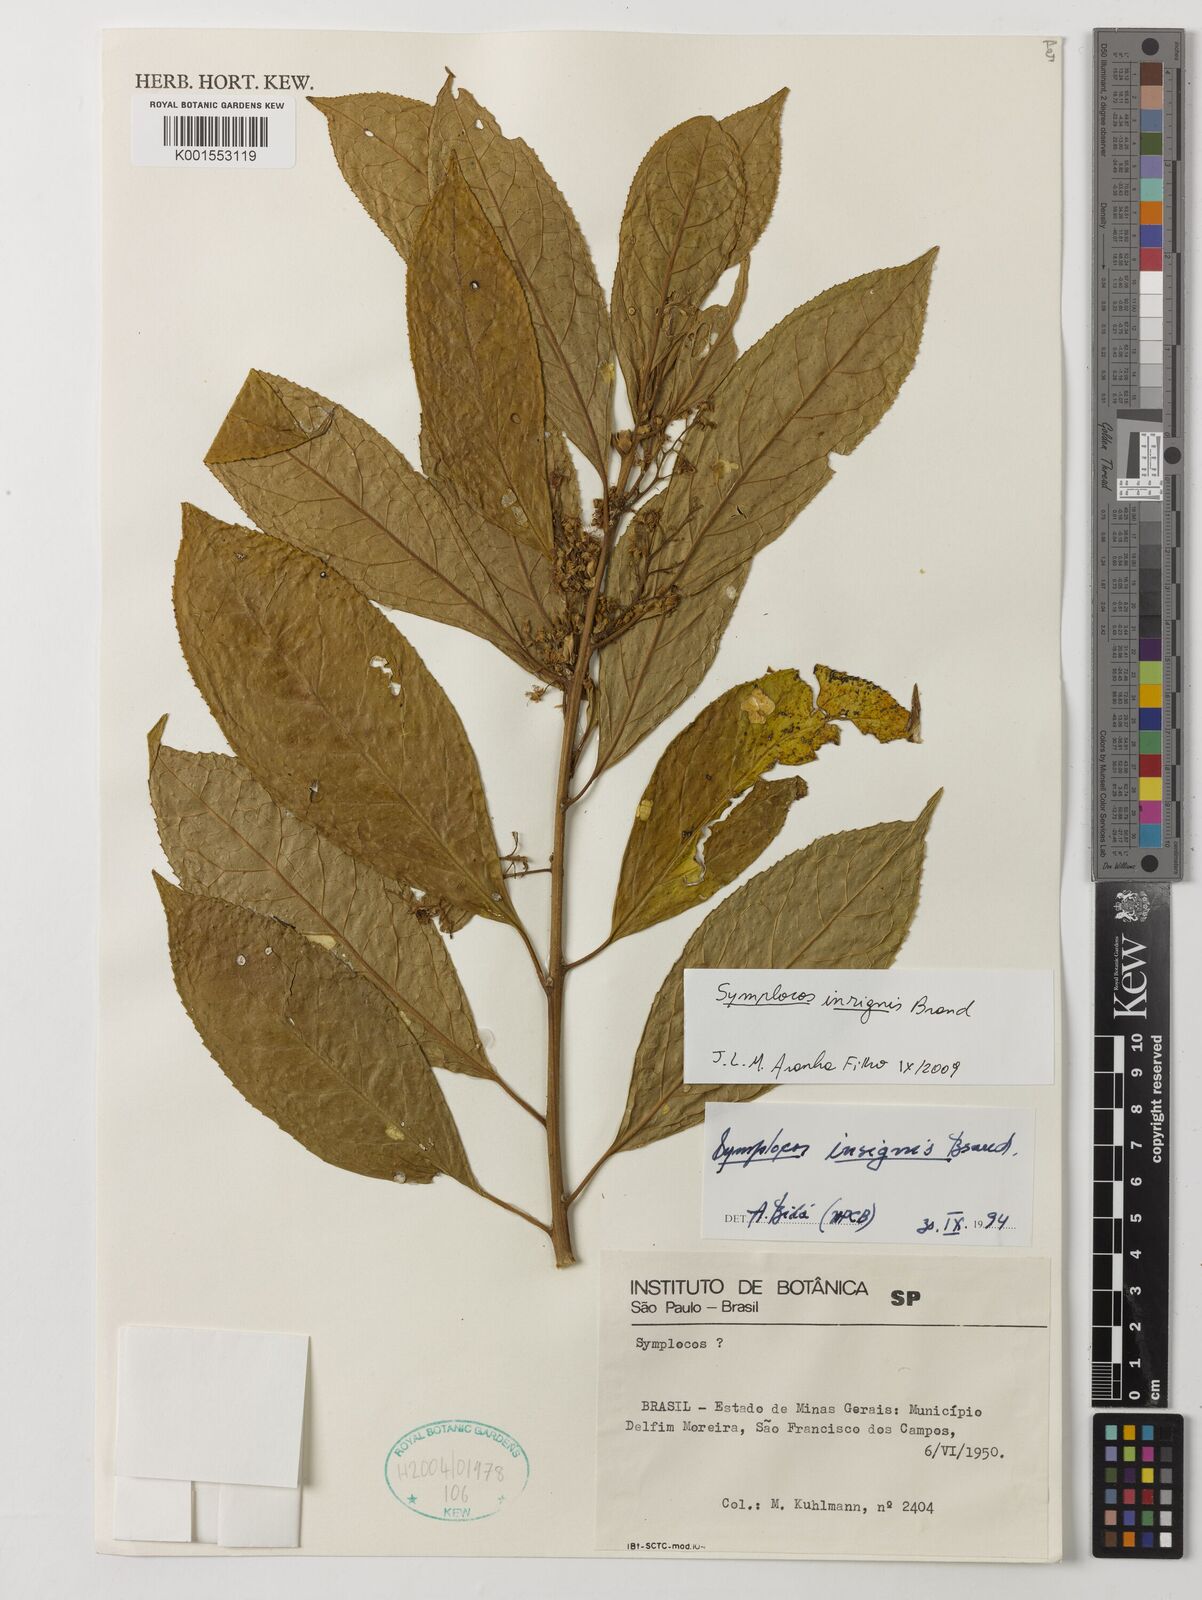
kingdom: Plantae
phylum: Tracheophyta
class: Magnoliopsida
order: Ericales
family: Symplocaceae
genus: Symplocos
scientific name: Symplocos insignis
